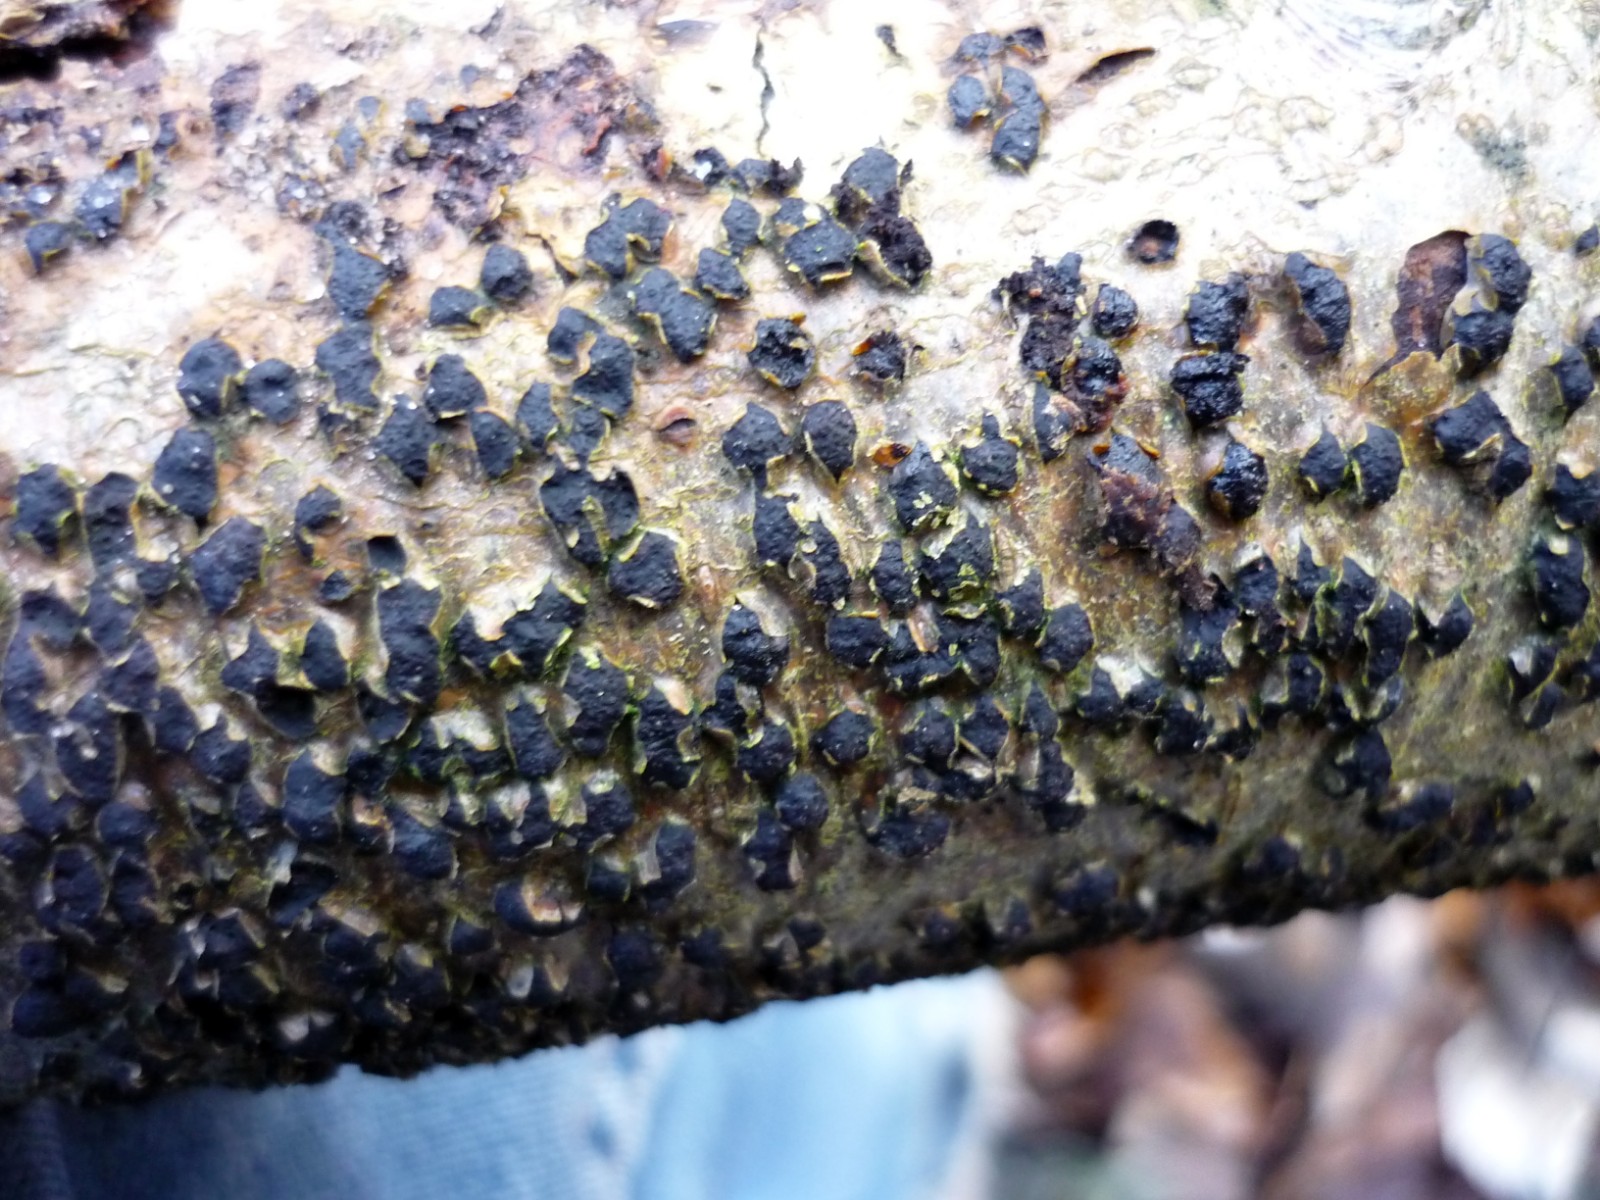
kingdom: Fungi
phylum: Ascomycota
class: Sordariomycetes
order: Xylariales
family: Diatrypaceae
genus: Diatrypella
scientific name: Diatrypella favacea
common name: klemt kulskorpe
